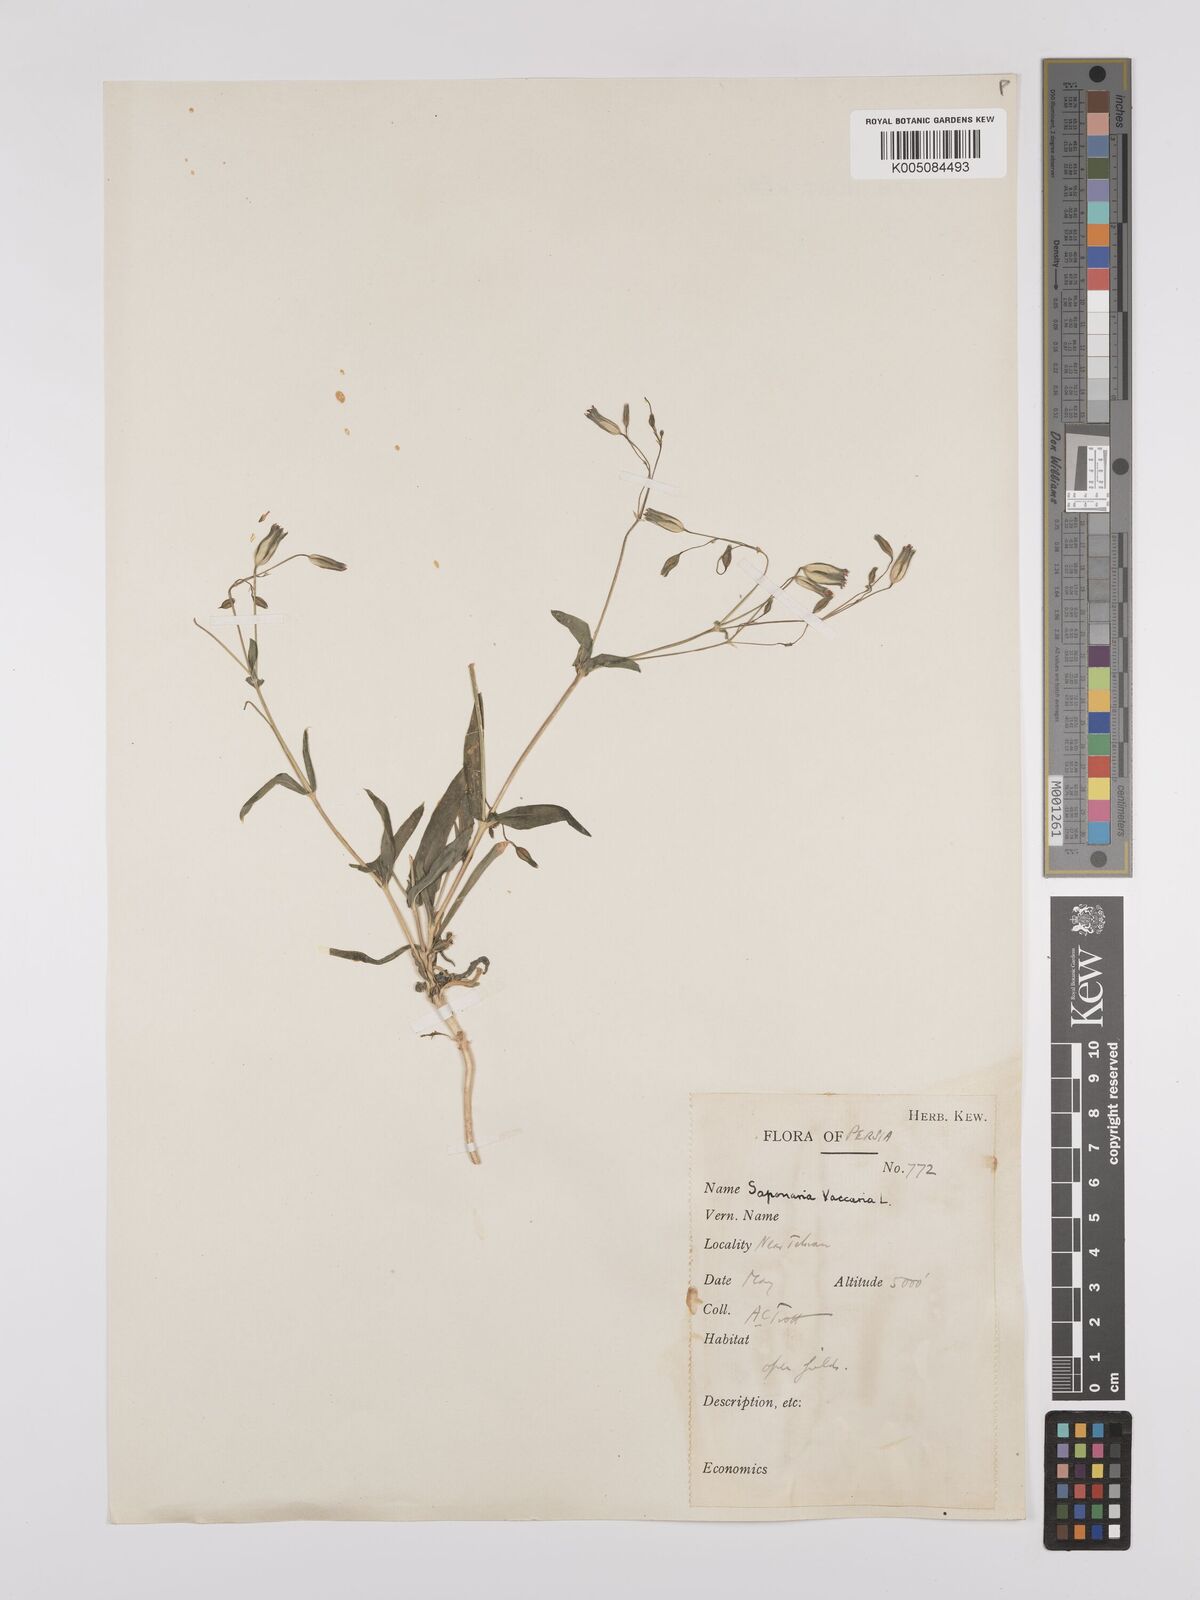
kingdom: Plantae
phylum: Tracheophyta
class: Magnoliopsida
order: Caryophyllales
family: Caryophyllaceae
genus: Gypsophila
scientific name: Gypsophila vaccaria
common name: Cow soapwort
